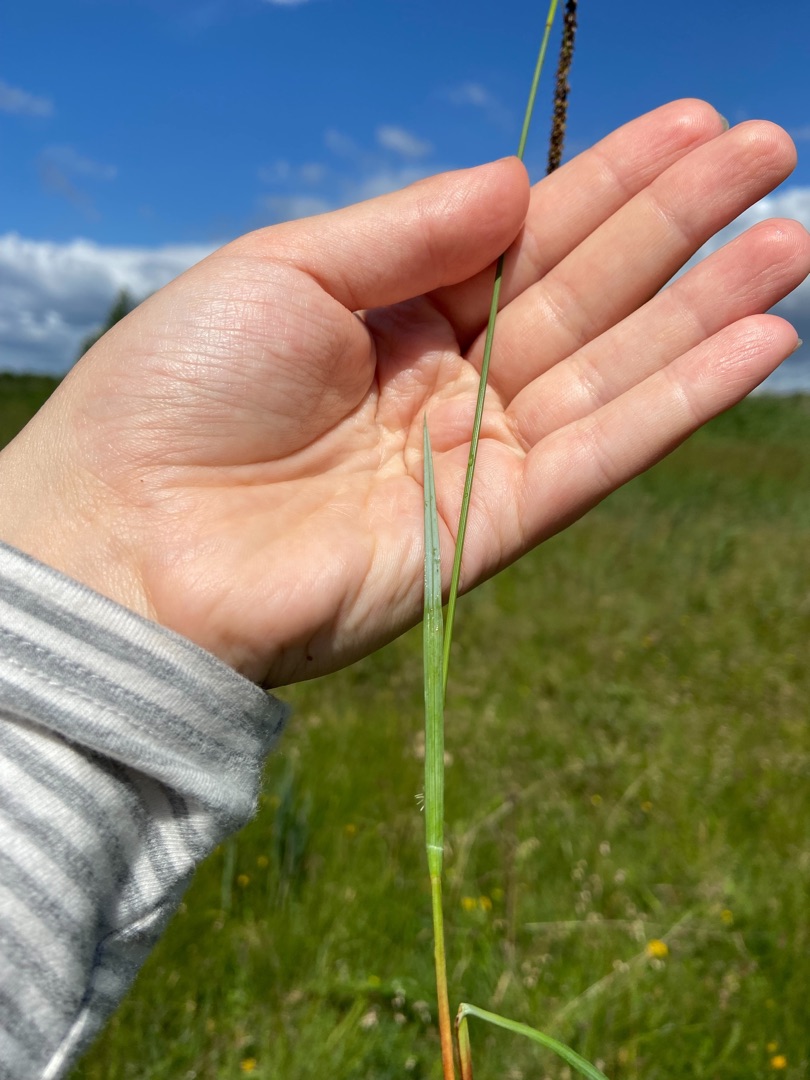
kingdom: Plantae
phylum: Tracheophyta
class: Liliopsida
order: Poales
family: Cyperaceae
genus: Carex
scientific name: Carex flacca
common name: Blågrøn star
